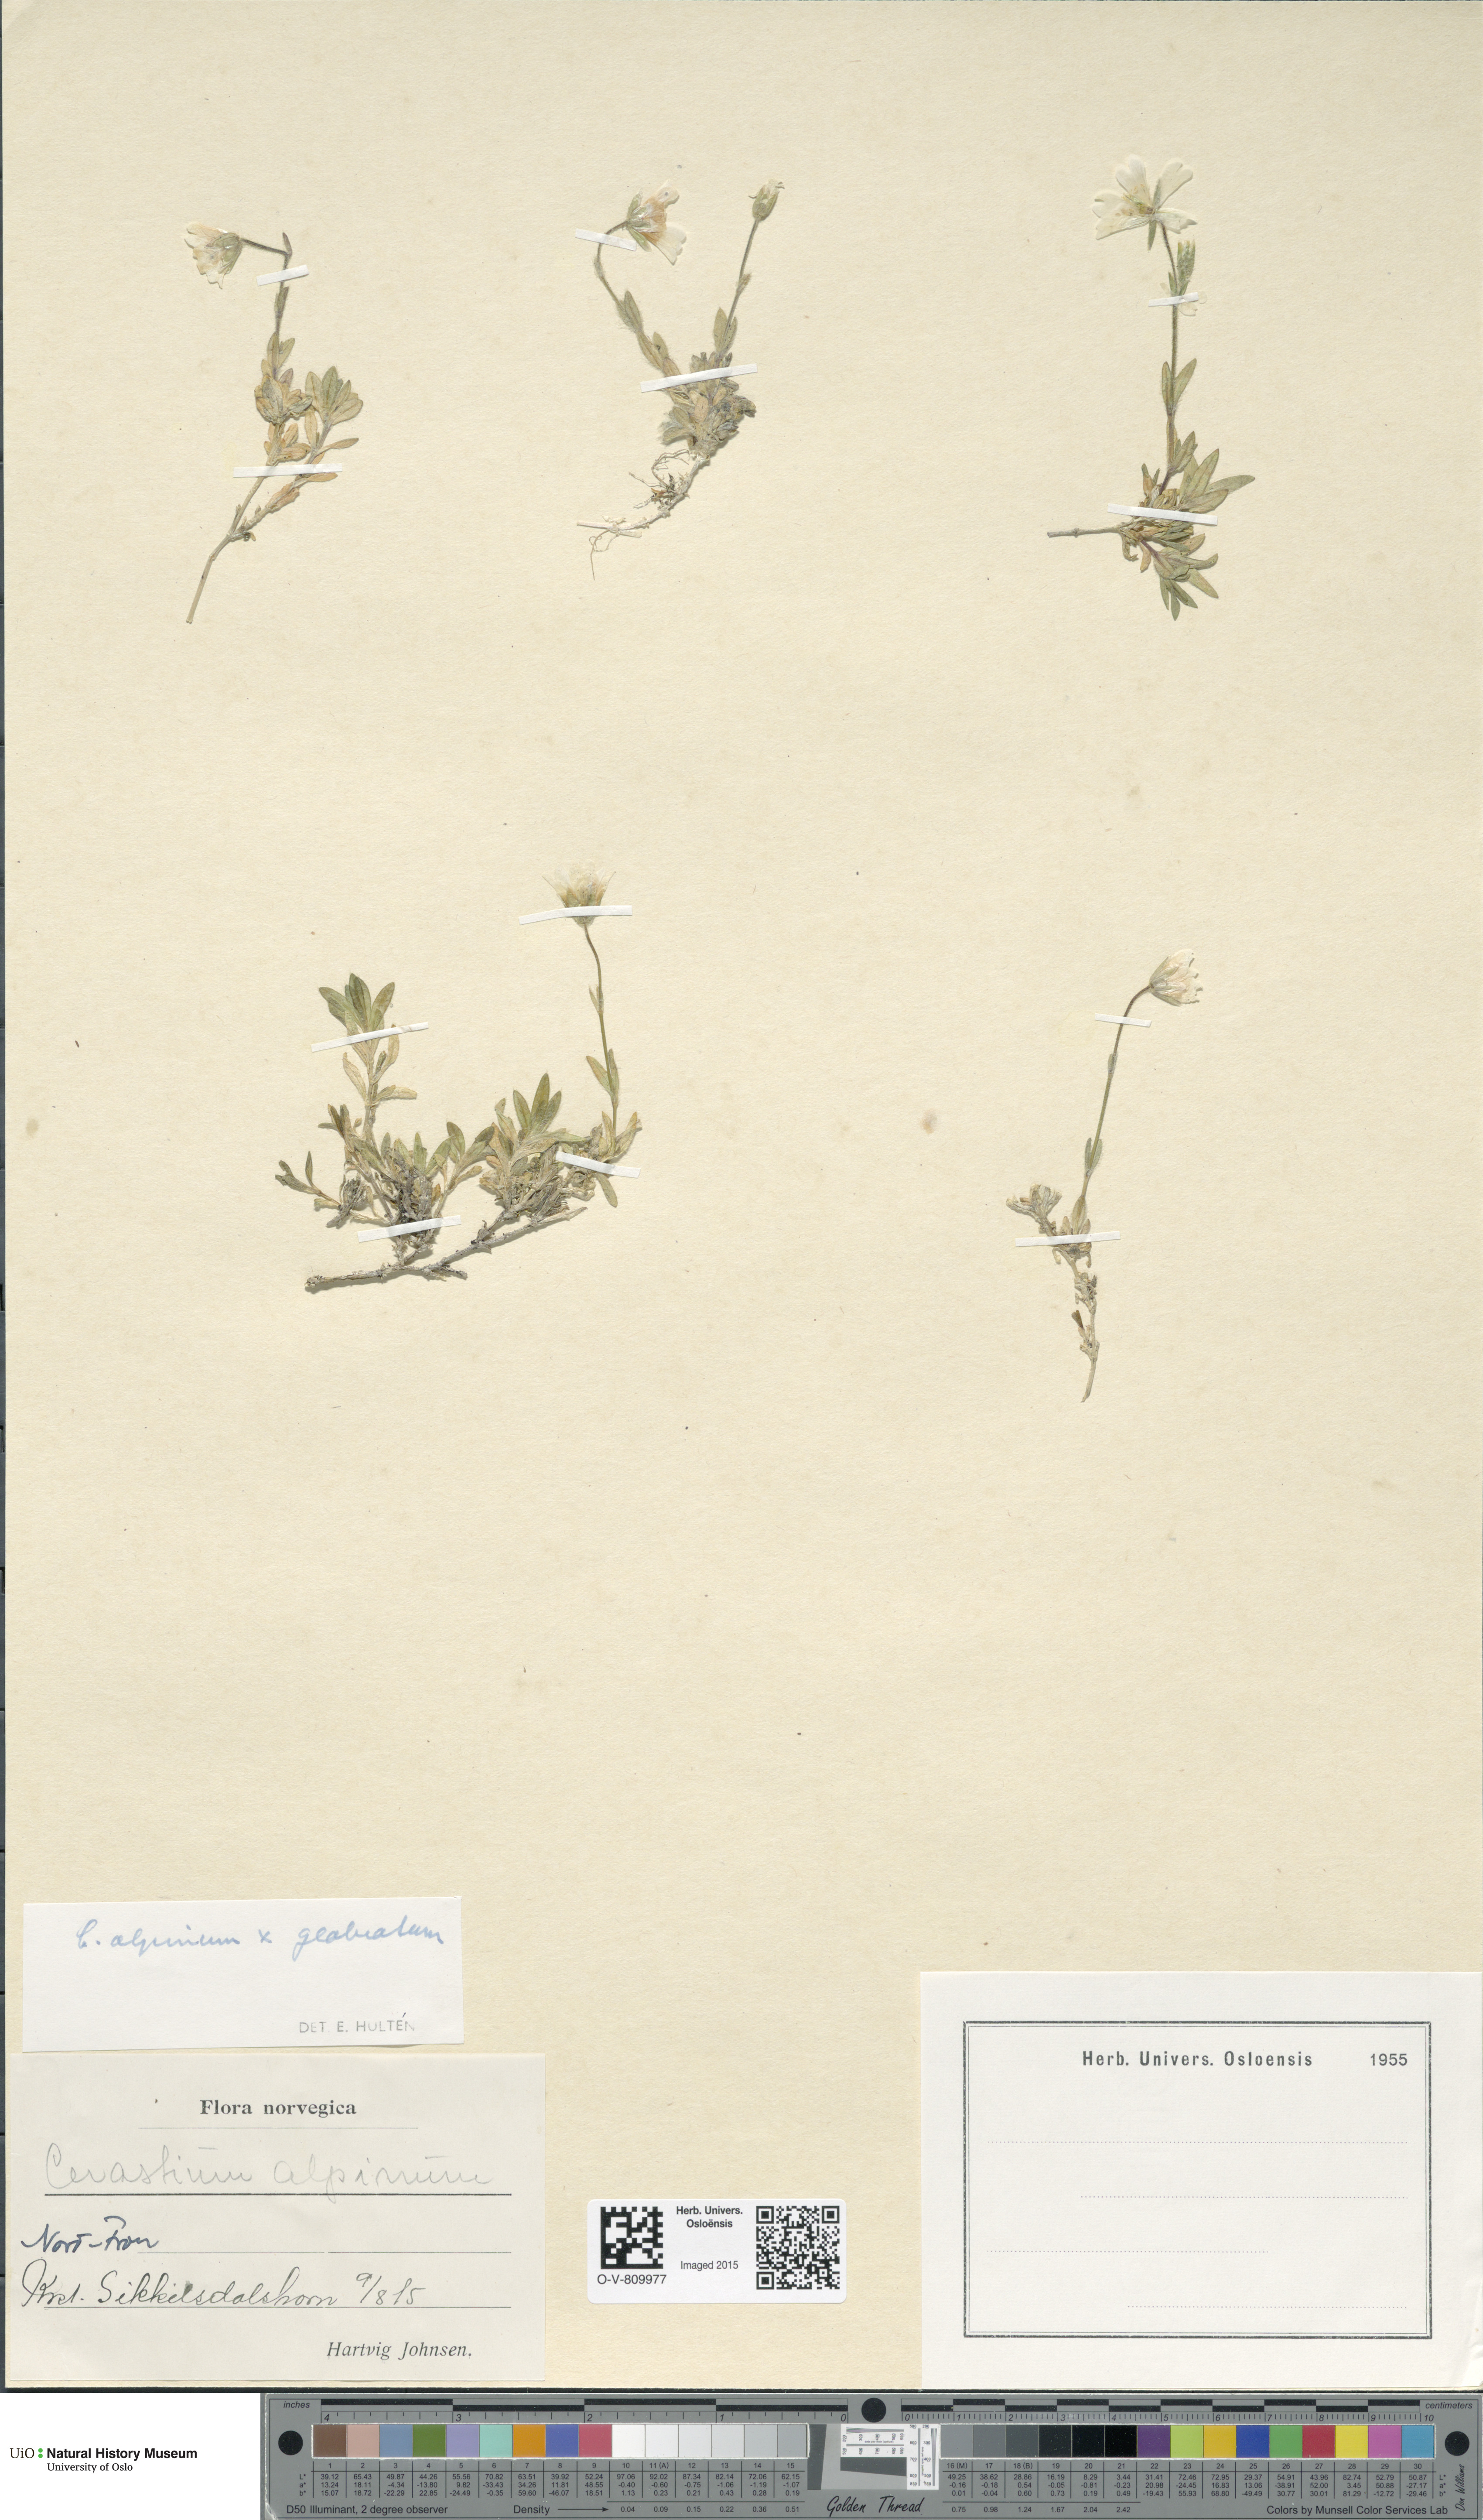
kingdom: Plantae
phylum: Tracheophyta
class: Magnoliopsida
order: Caryophyllales
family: Caryophyllaceae
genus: Cerastium
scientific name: Cerastium
